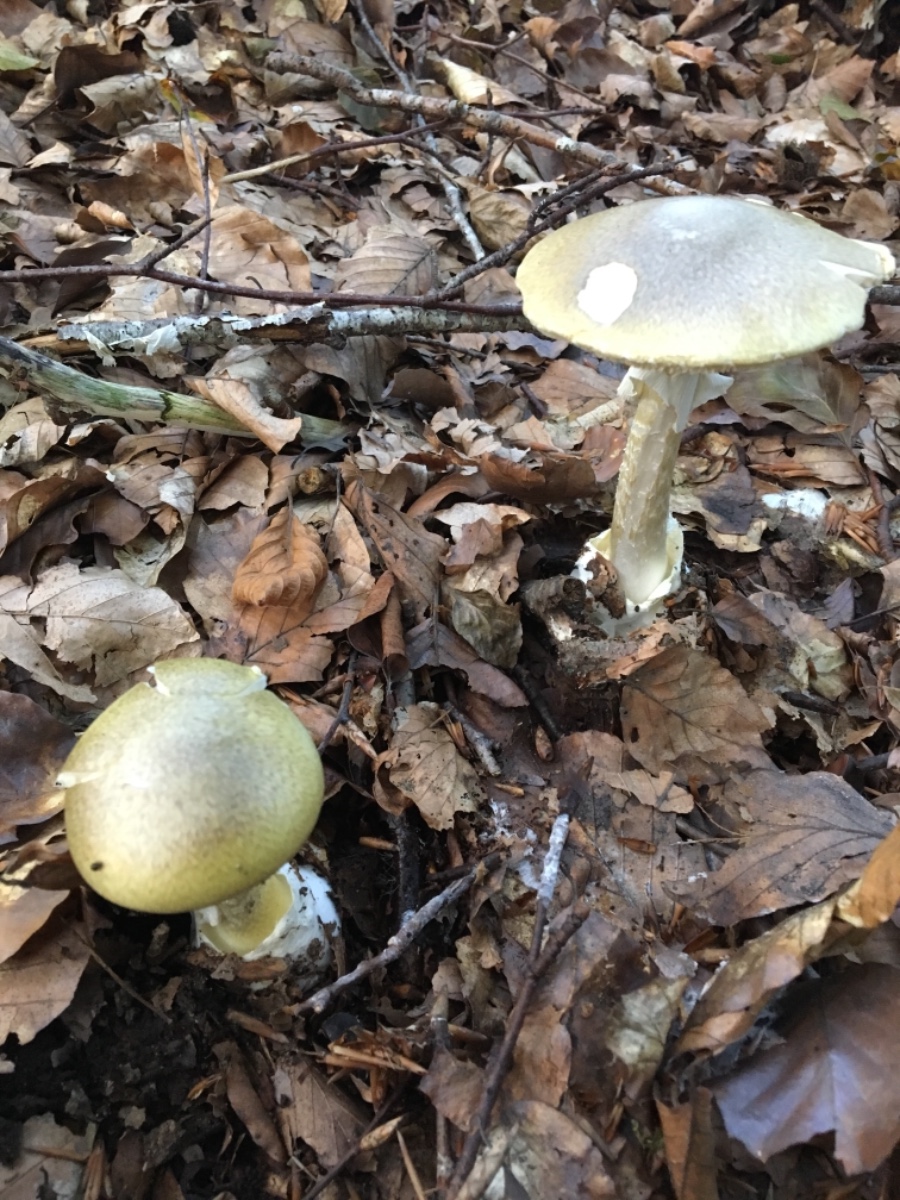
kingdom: Fungi
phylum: Basidiomycota
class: Agaricomycetes
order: Agaricales
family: Amanitaceae
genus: Amanita
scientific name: Amanita phalloides
